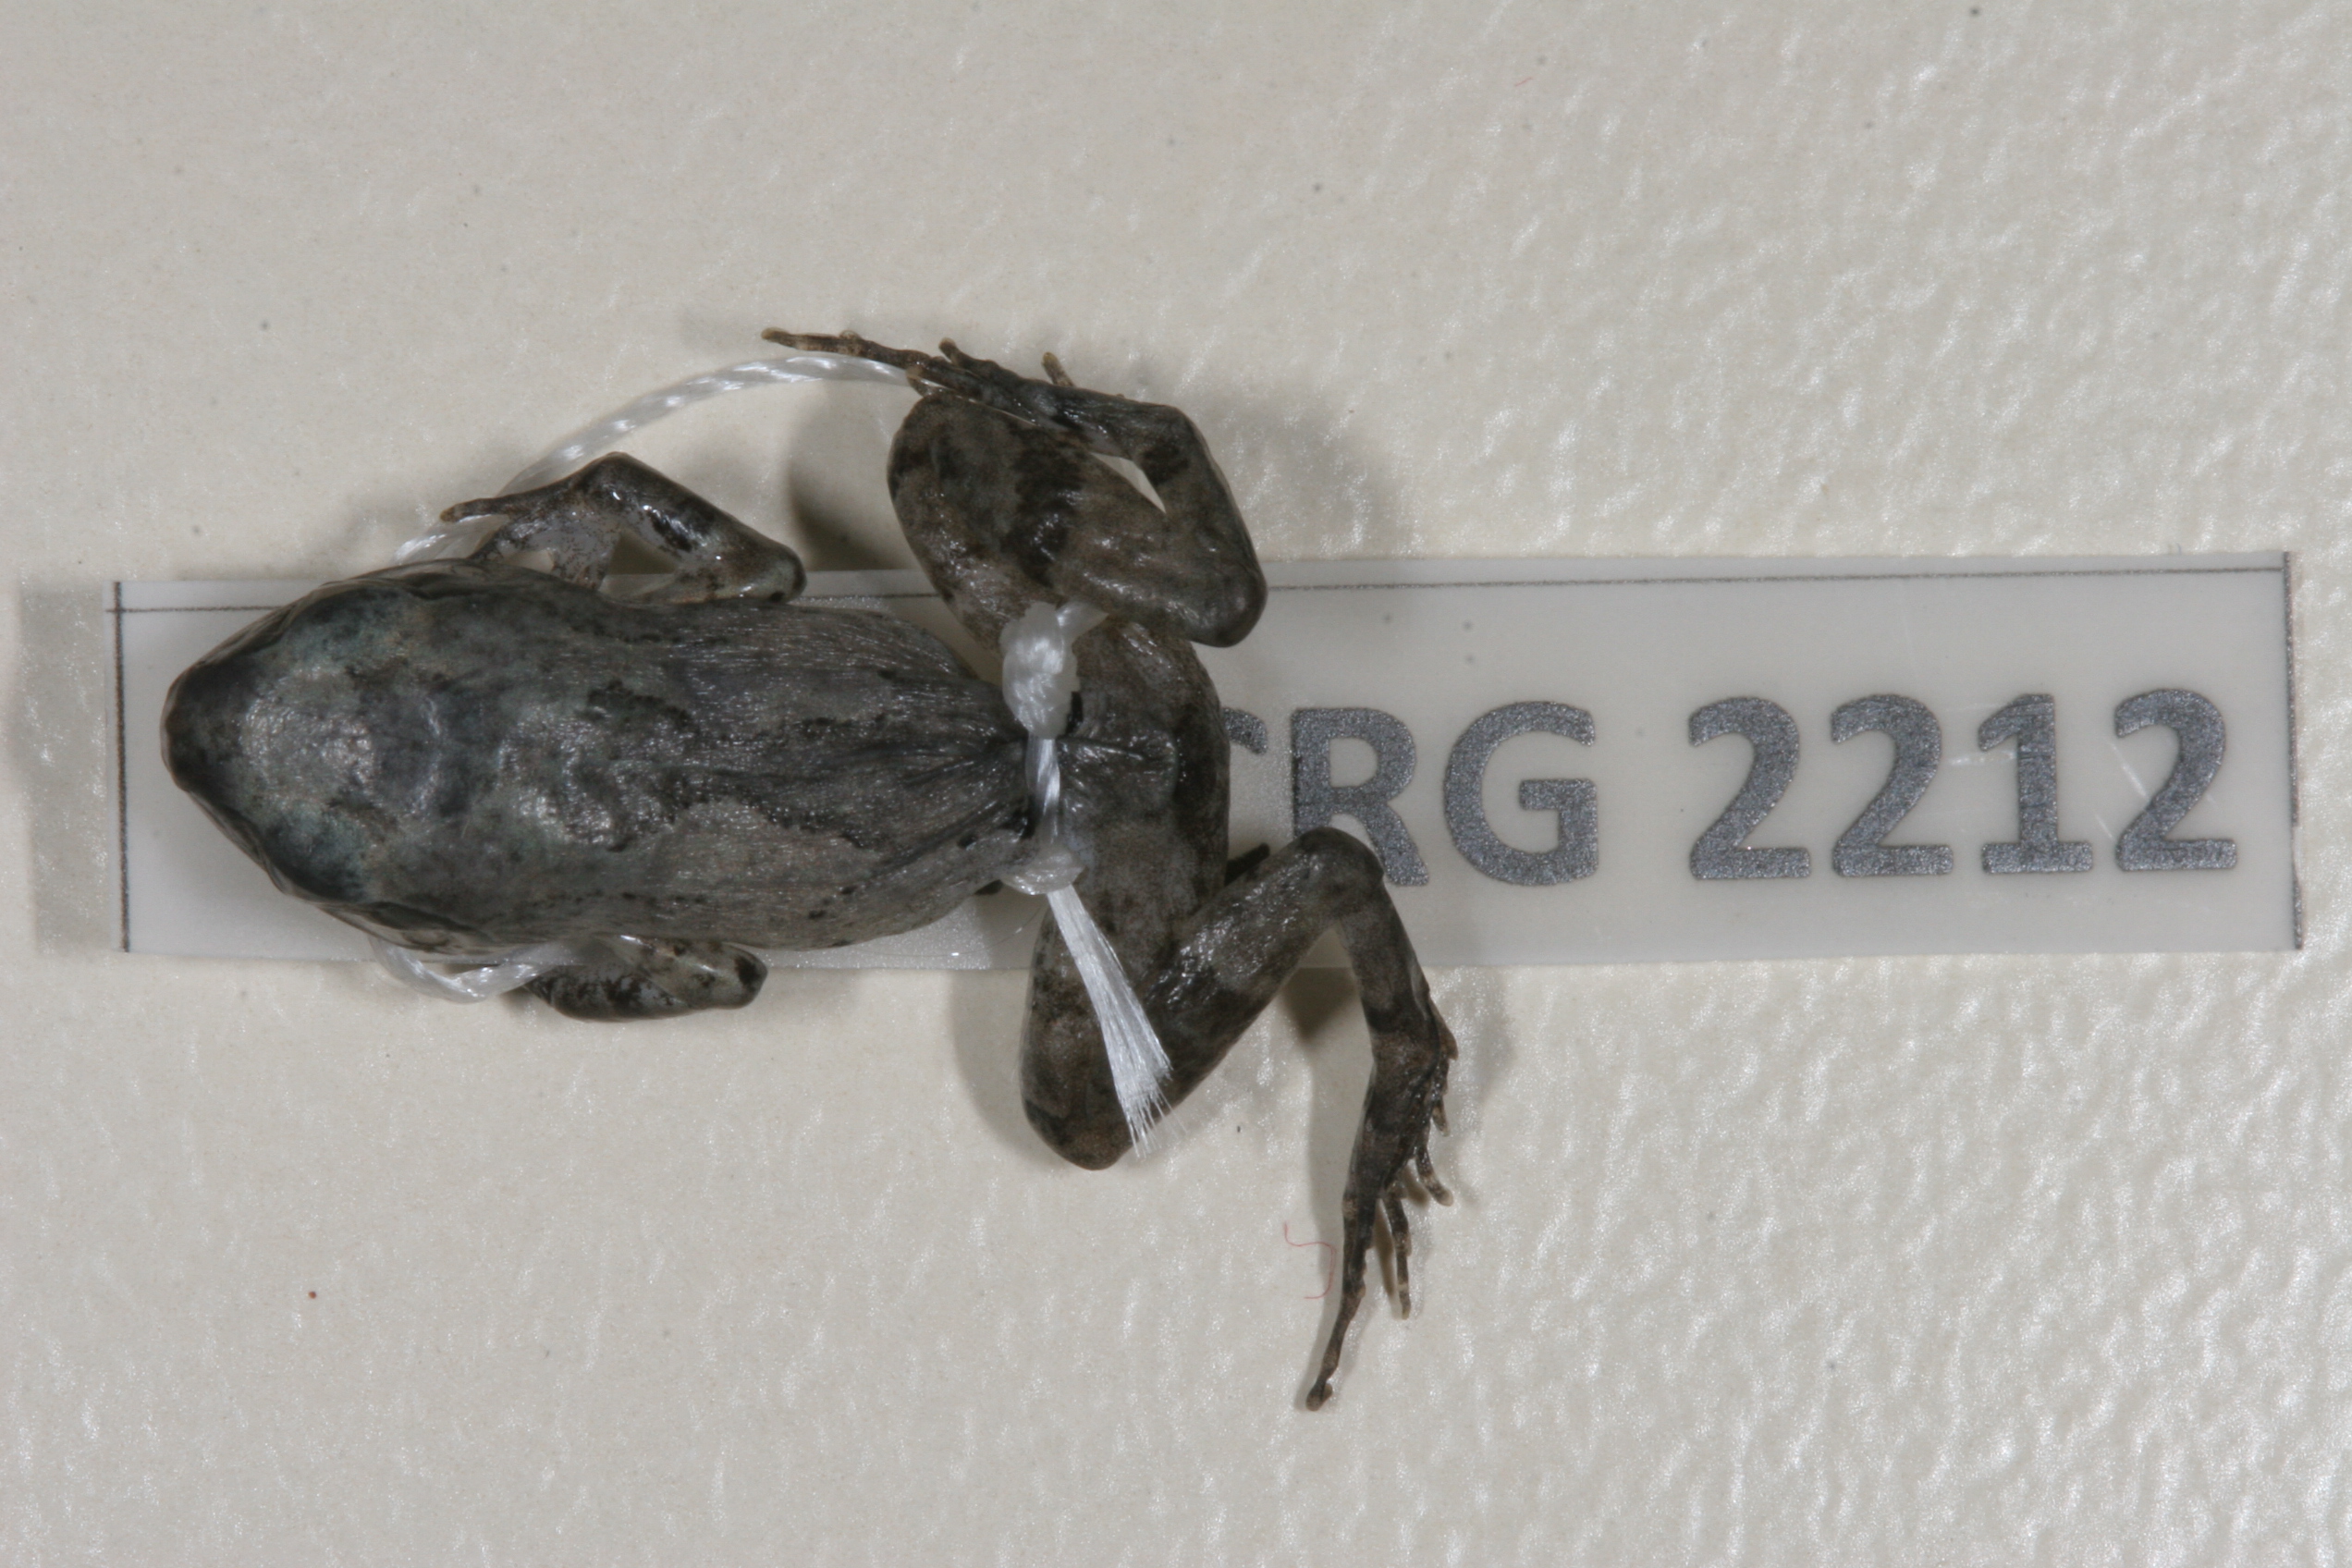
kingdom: Animalia
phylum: Chordata
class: Amphibia
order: Anura
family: Arthroleptidae
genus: Arthroleptis
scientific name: Arthroleptis wahlbergii
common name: Bush squeaker
